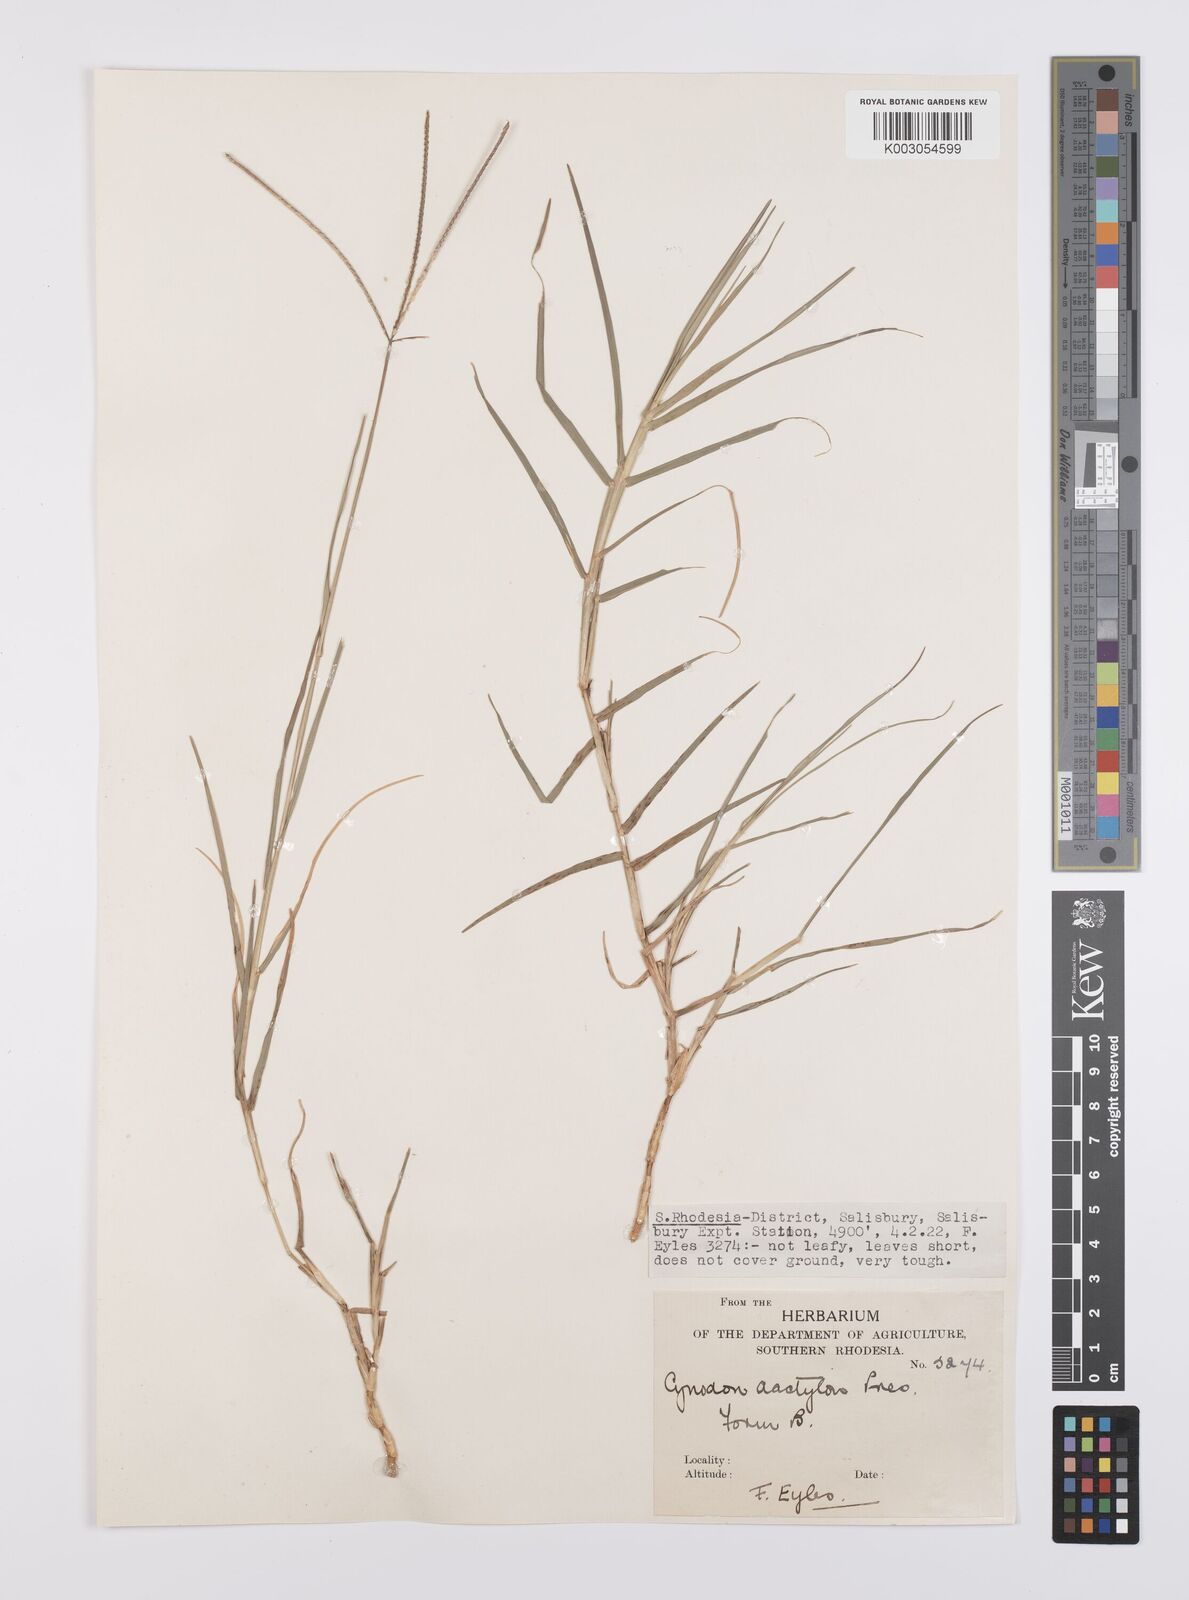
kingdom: Plantae
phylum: Tracheophyta
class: Liliopsida
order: Poales
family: Poaceae
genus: Cynodon
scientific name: Cynodon dactylon
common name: Bermuda grass
